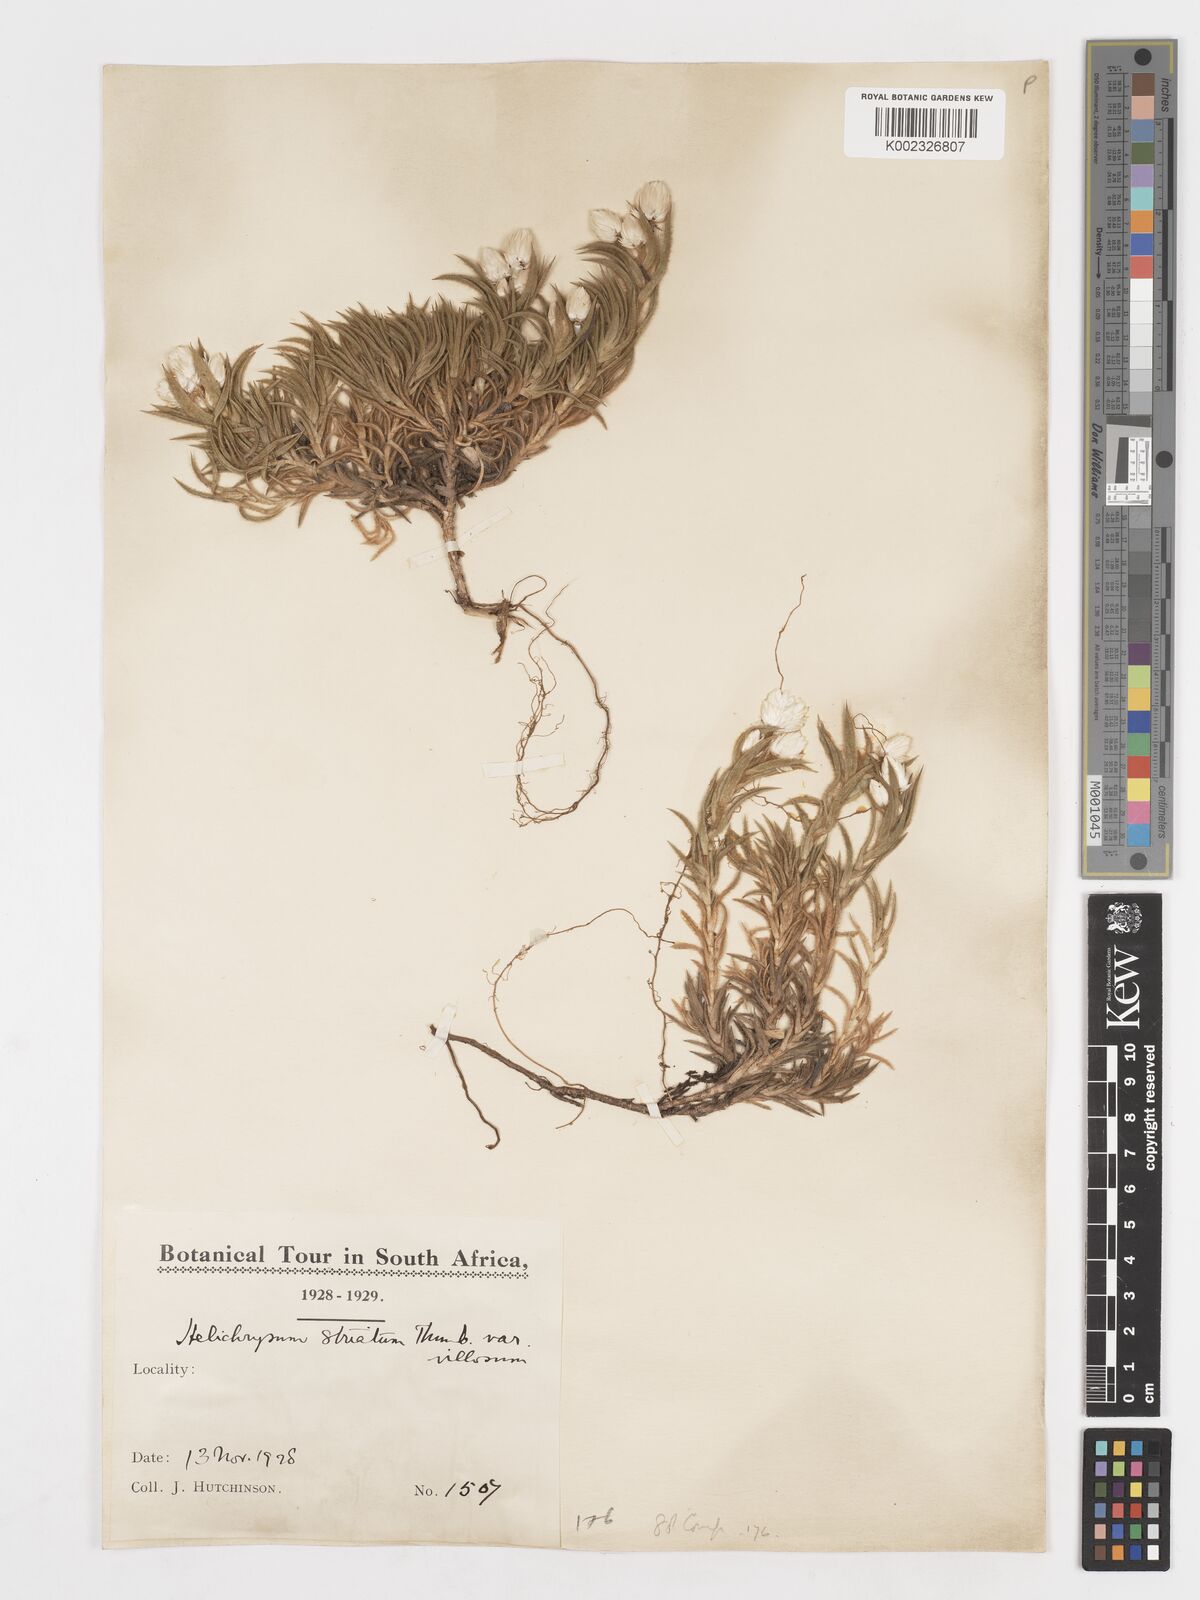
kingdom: Plantae
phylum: Tracheophyta
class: Magnoliopsida
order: Asterales
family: Asteraceae
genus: Achyranthemum
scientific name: Achyranthemum striatum
